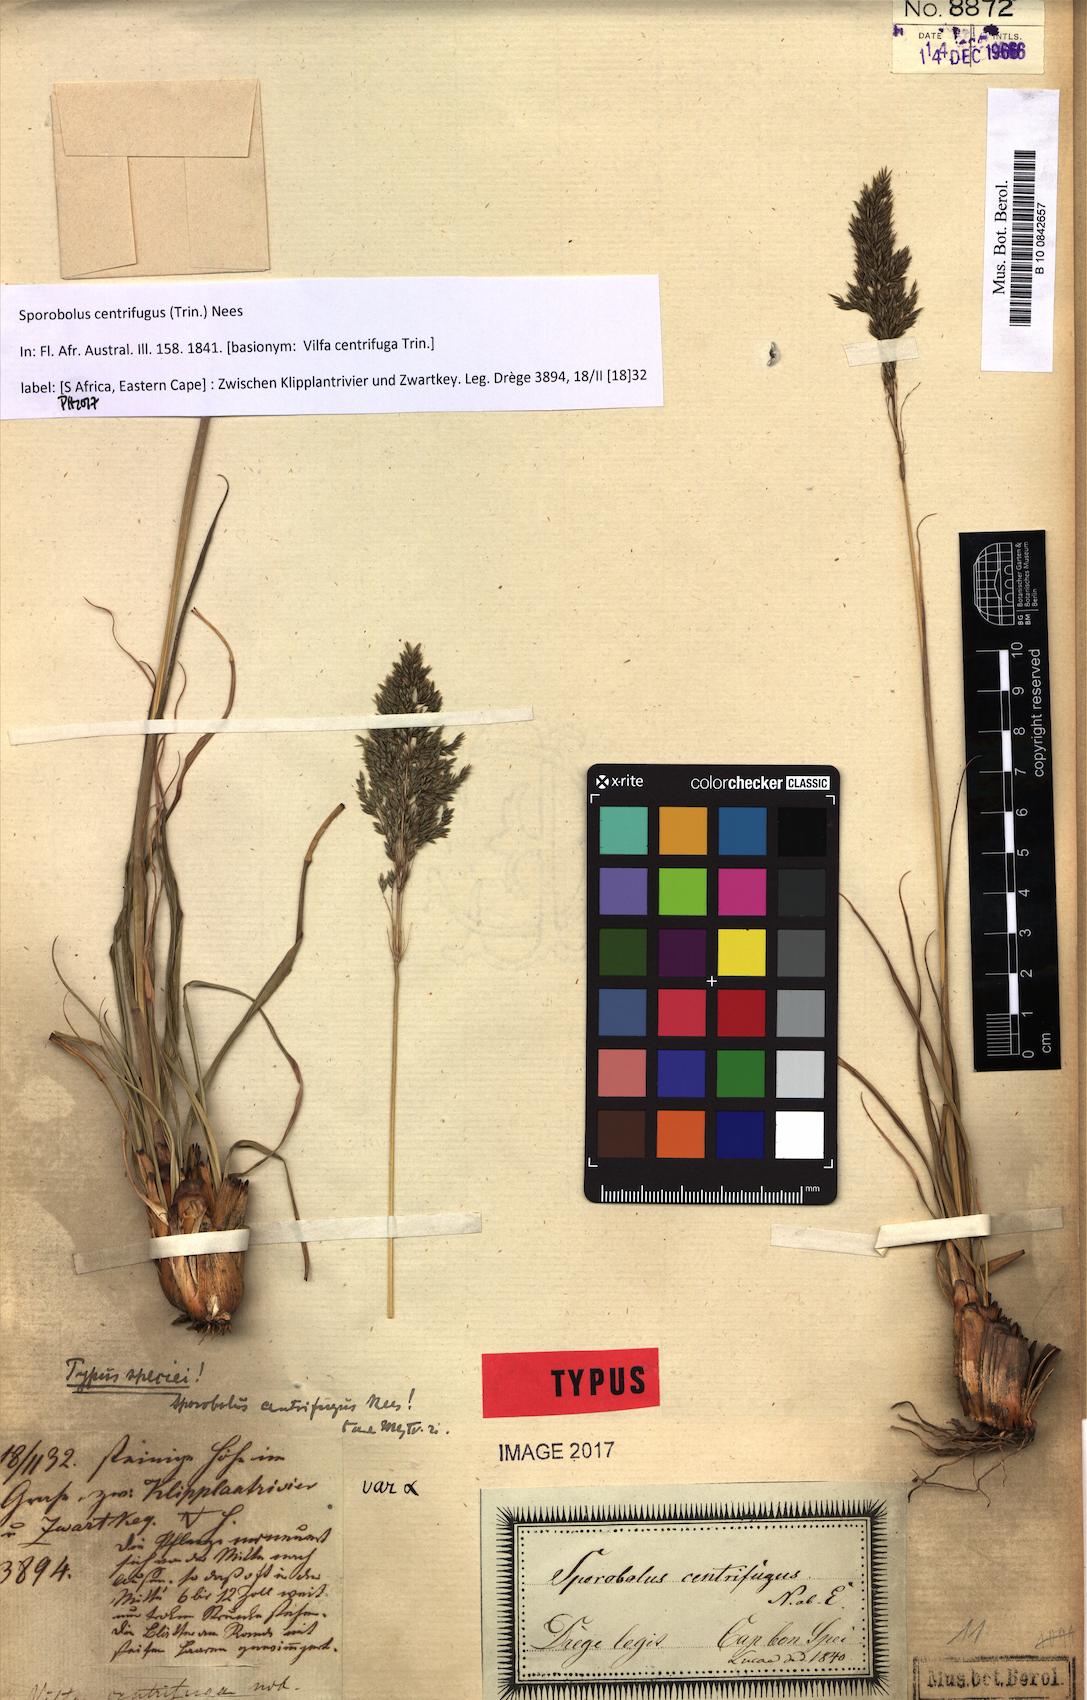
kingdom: Plantae
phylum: Tracheophyta
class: Liliopsida
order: Poales
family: Poaceae
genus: Sporobolus
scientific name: Sporobolus centrifugus
